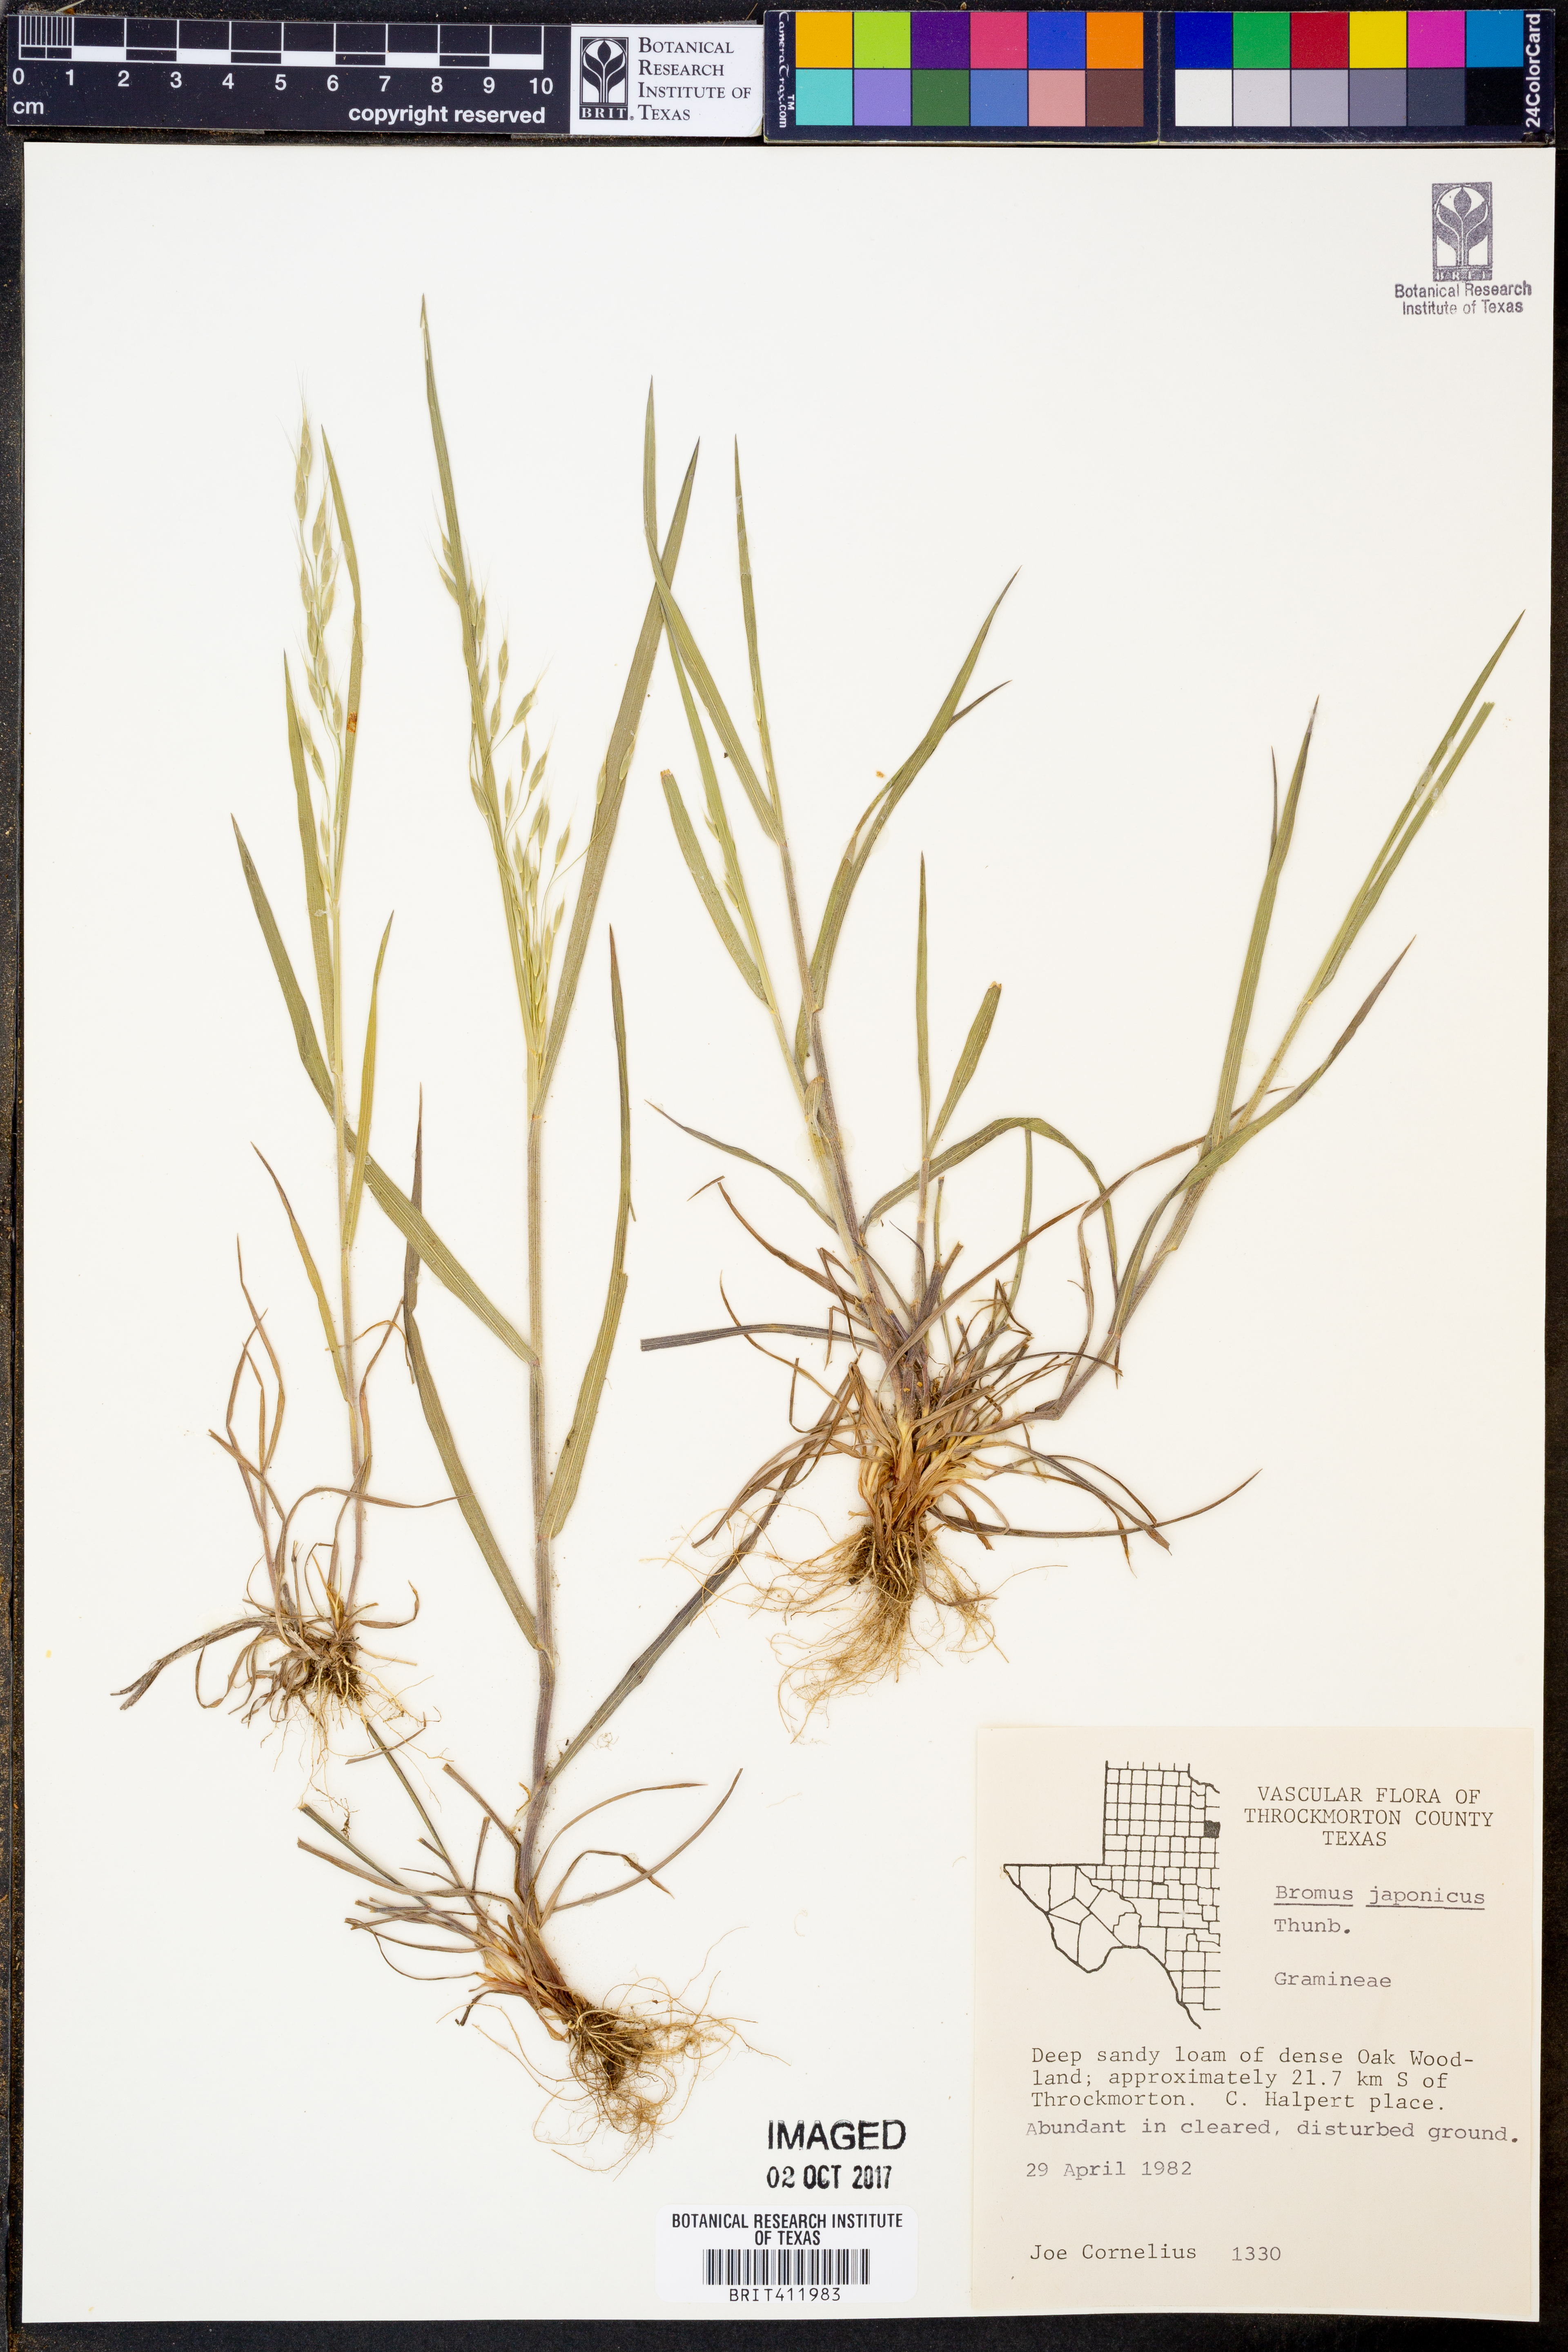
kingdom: Plantae
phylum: Tracheophyta
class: Liliopsida
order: Poales
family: Poaceae
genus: Bromus
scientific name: Bromus japonicus
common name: Japanese brome
